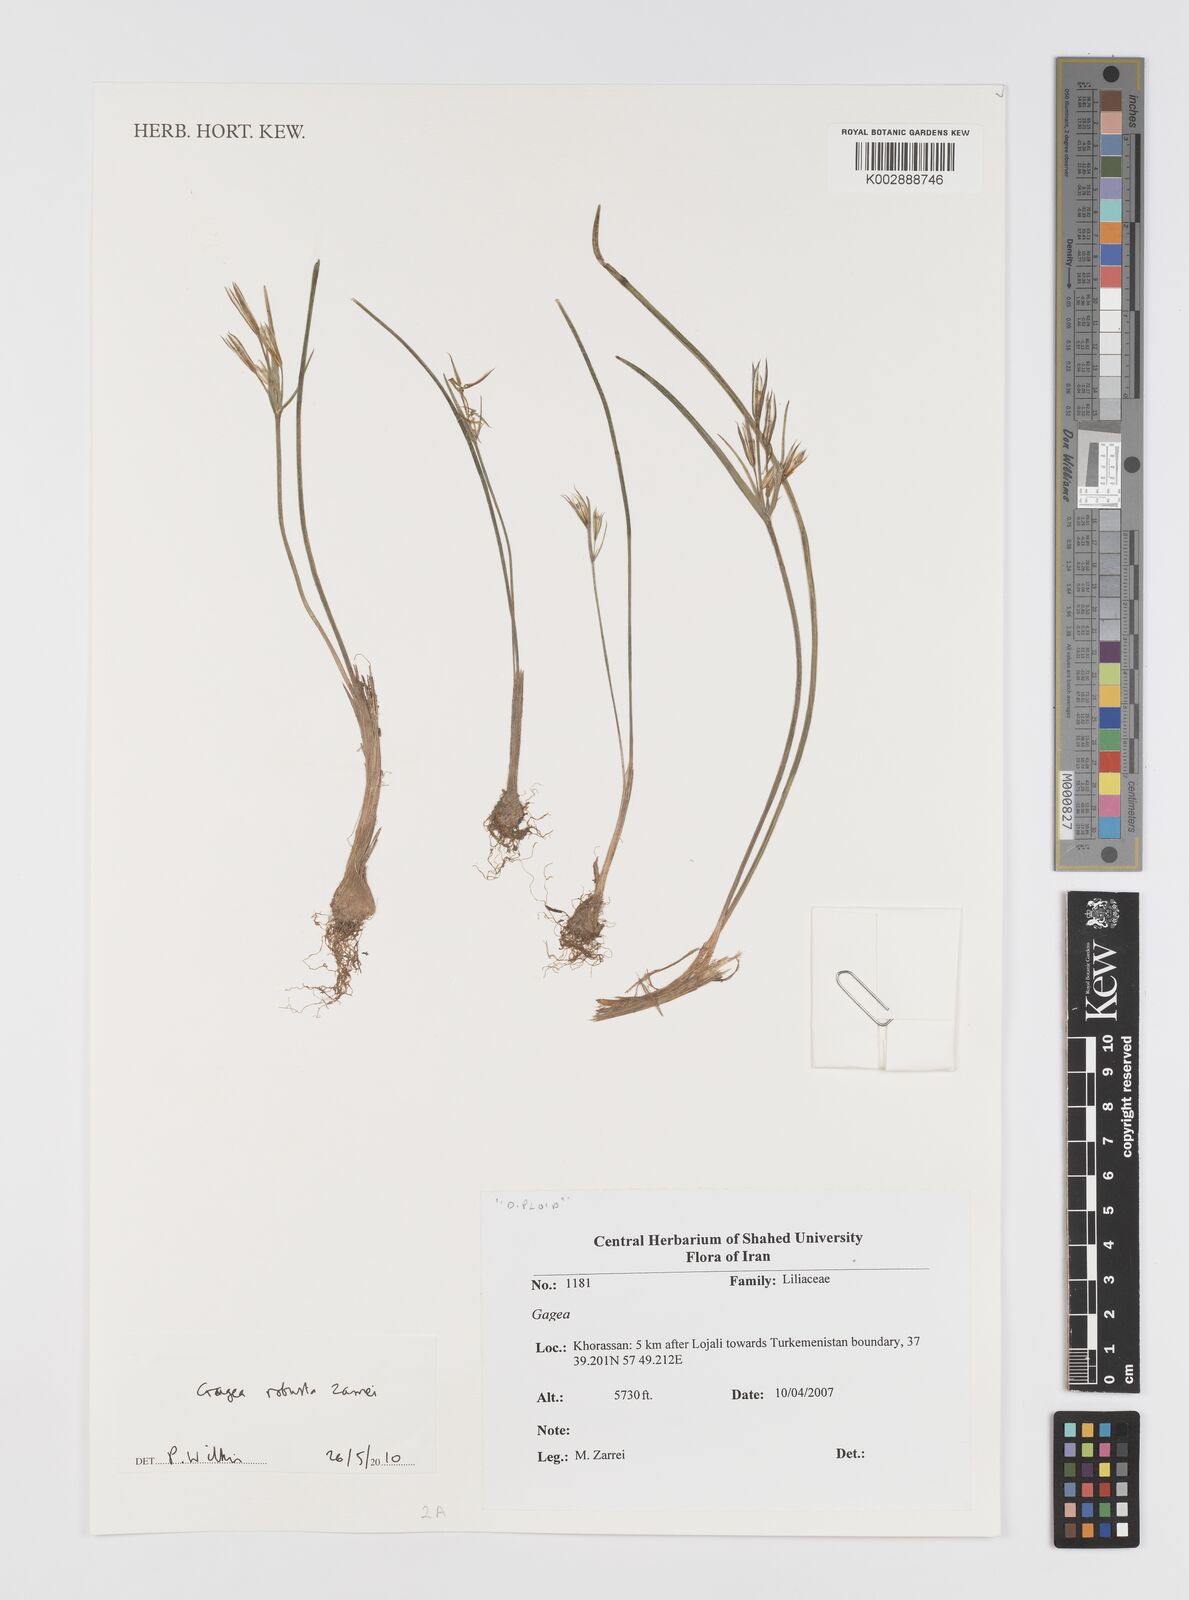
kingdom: Plantae
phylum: Tracheophyta
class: Liliopsida
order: Liliales
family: Liliaceae
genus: Gagea
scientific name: Gagea robusta
